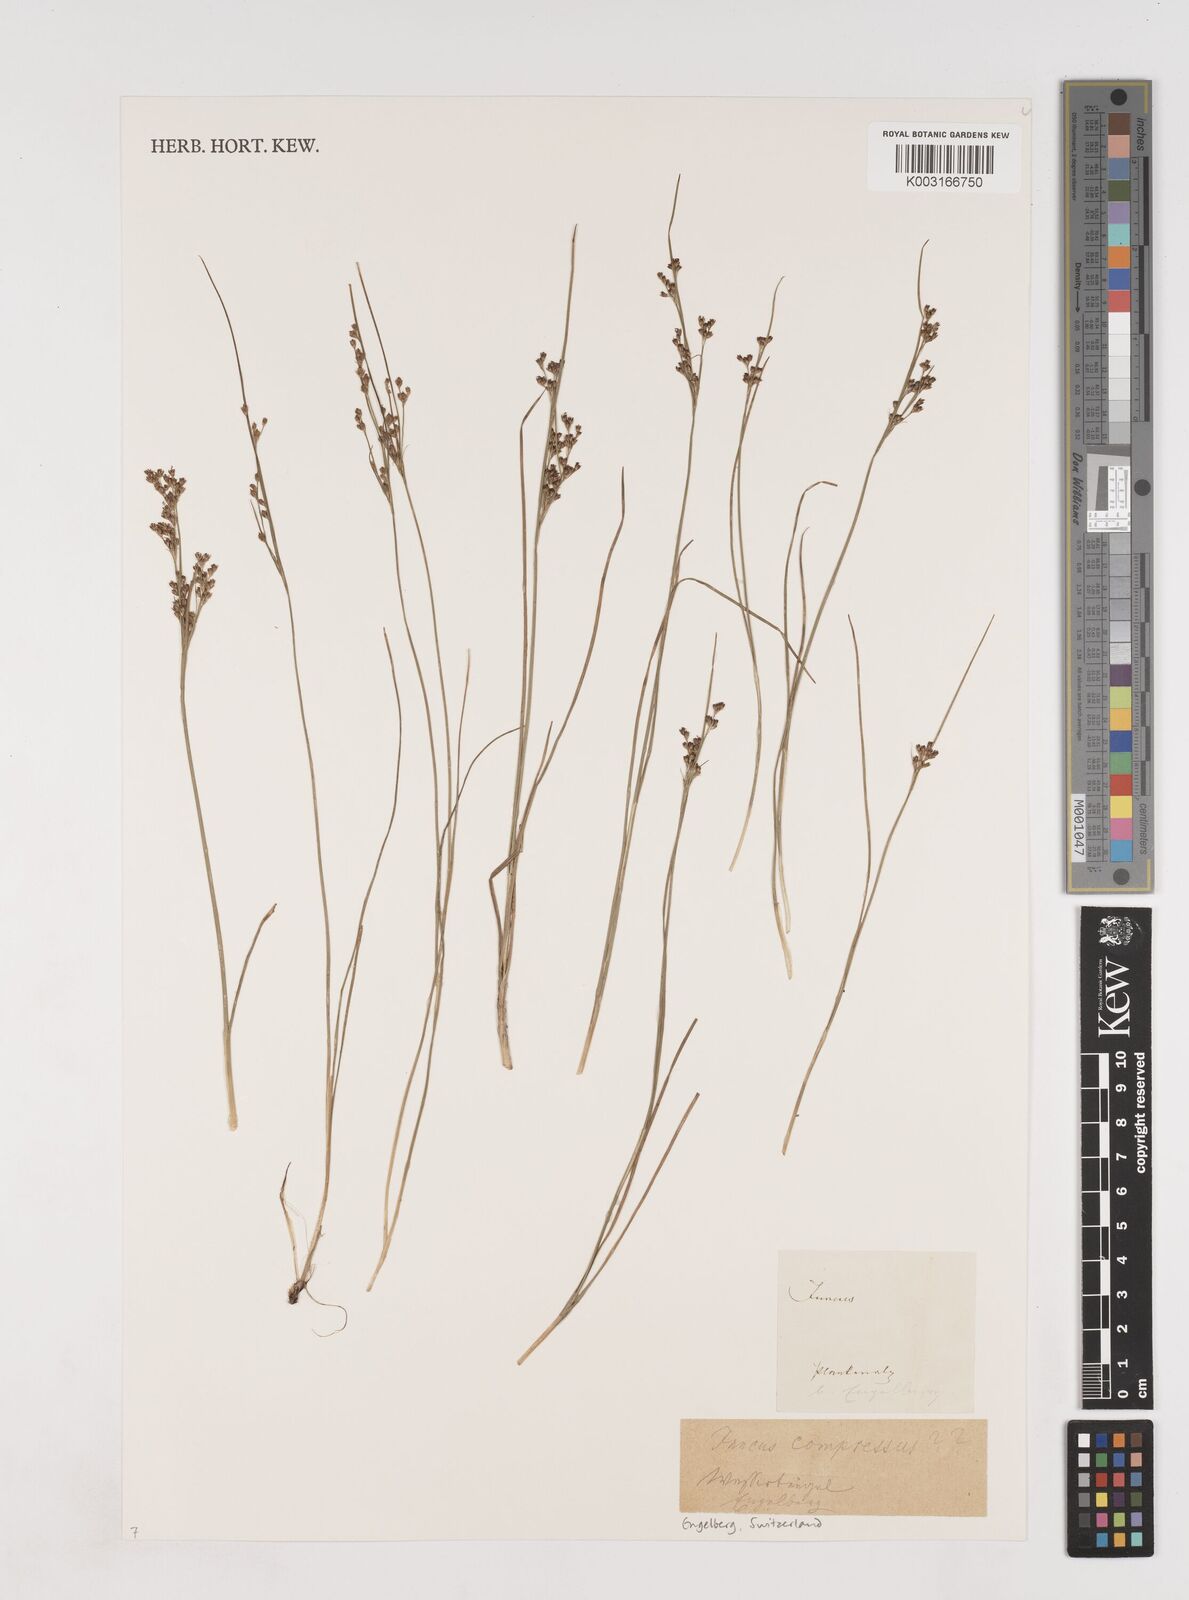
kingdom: Plantae
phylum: Tracheophyta
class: Liliopsida
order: Poales
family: Juncaceae
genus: Juncus
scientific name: Juncus
